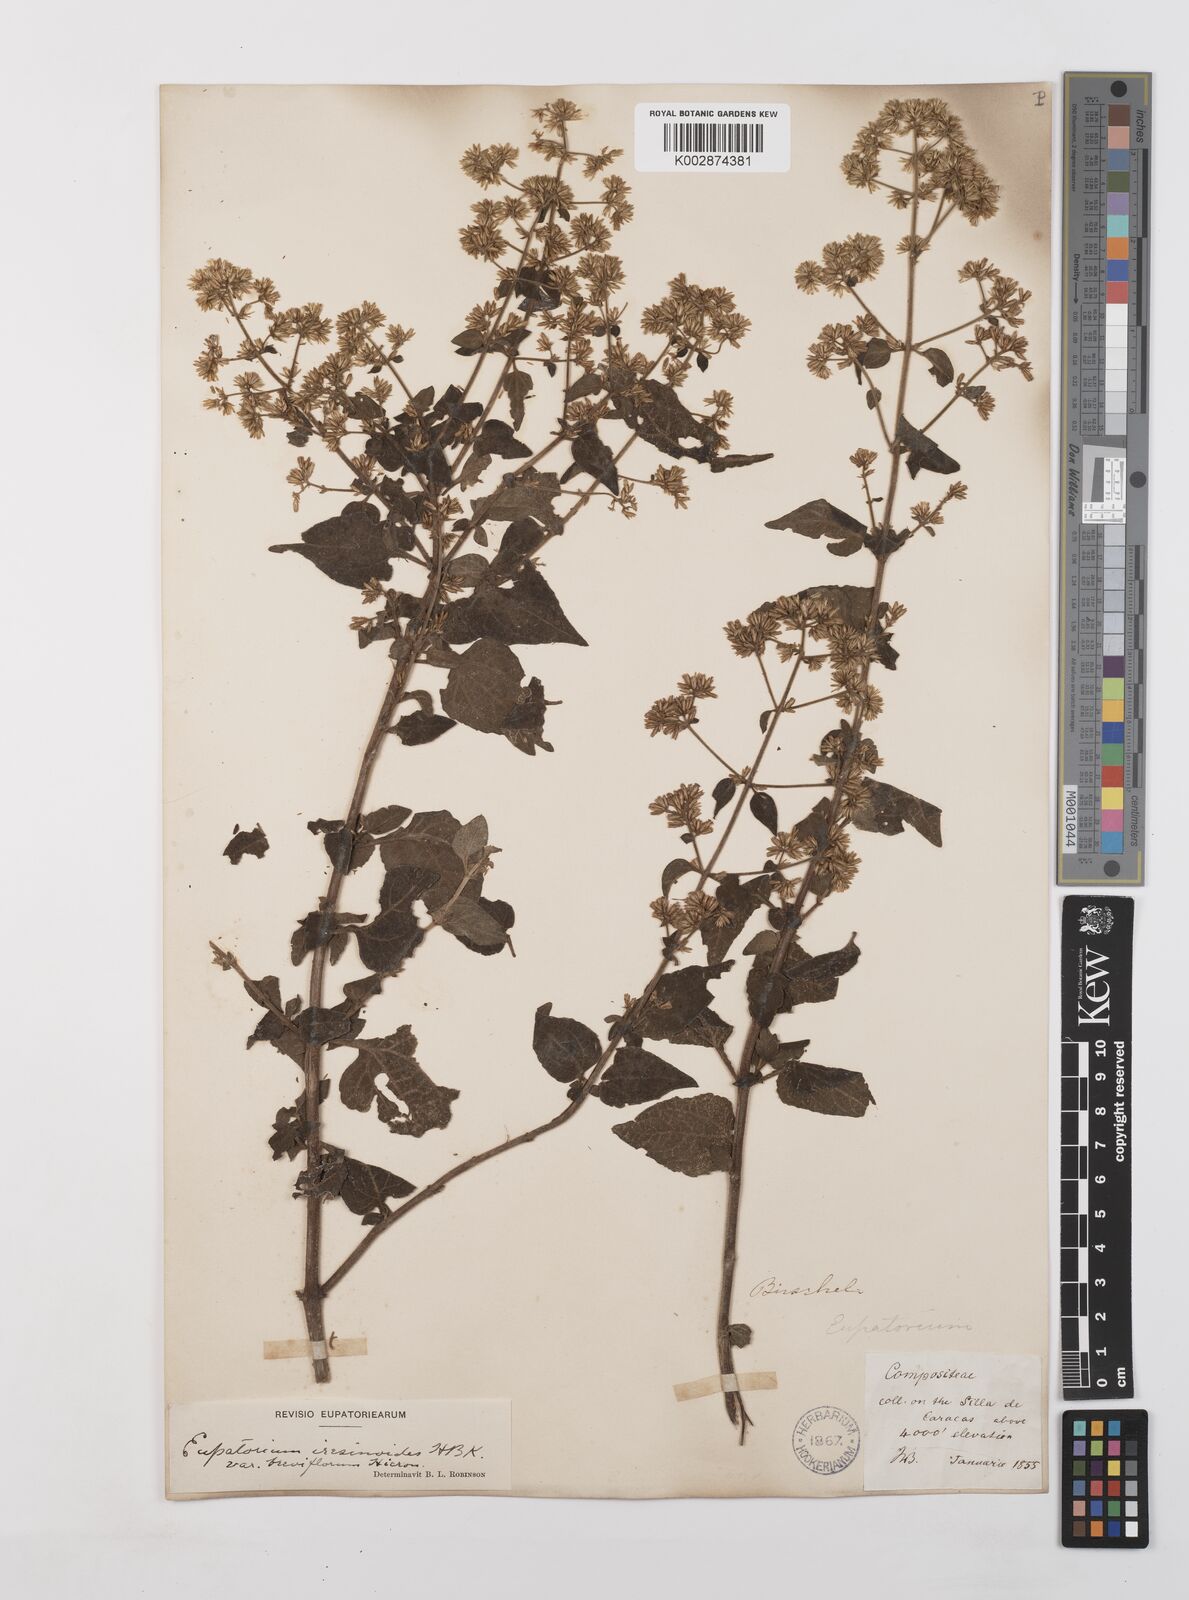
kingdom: Plantae
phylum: Tracheophyta
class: Magnoliopsida
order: Asterales
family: Asteraceae
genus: Condylidium
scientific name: Condylidium iresinoides
